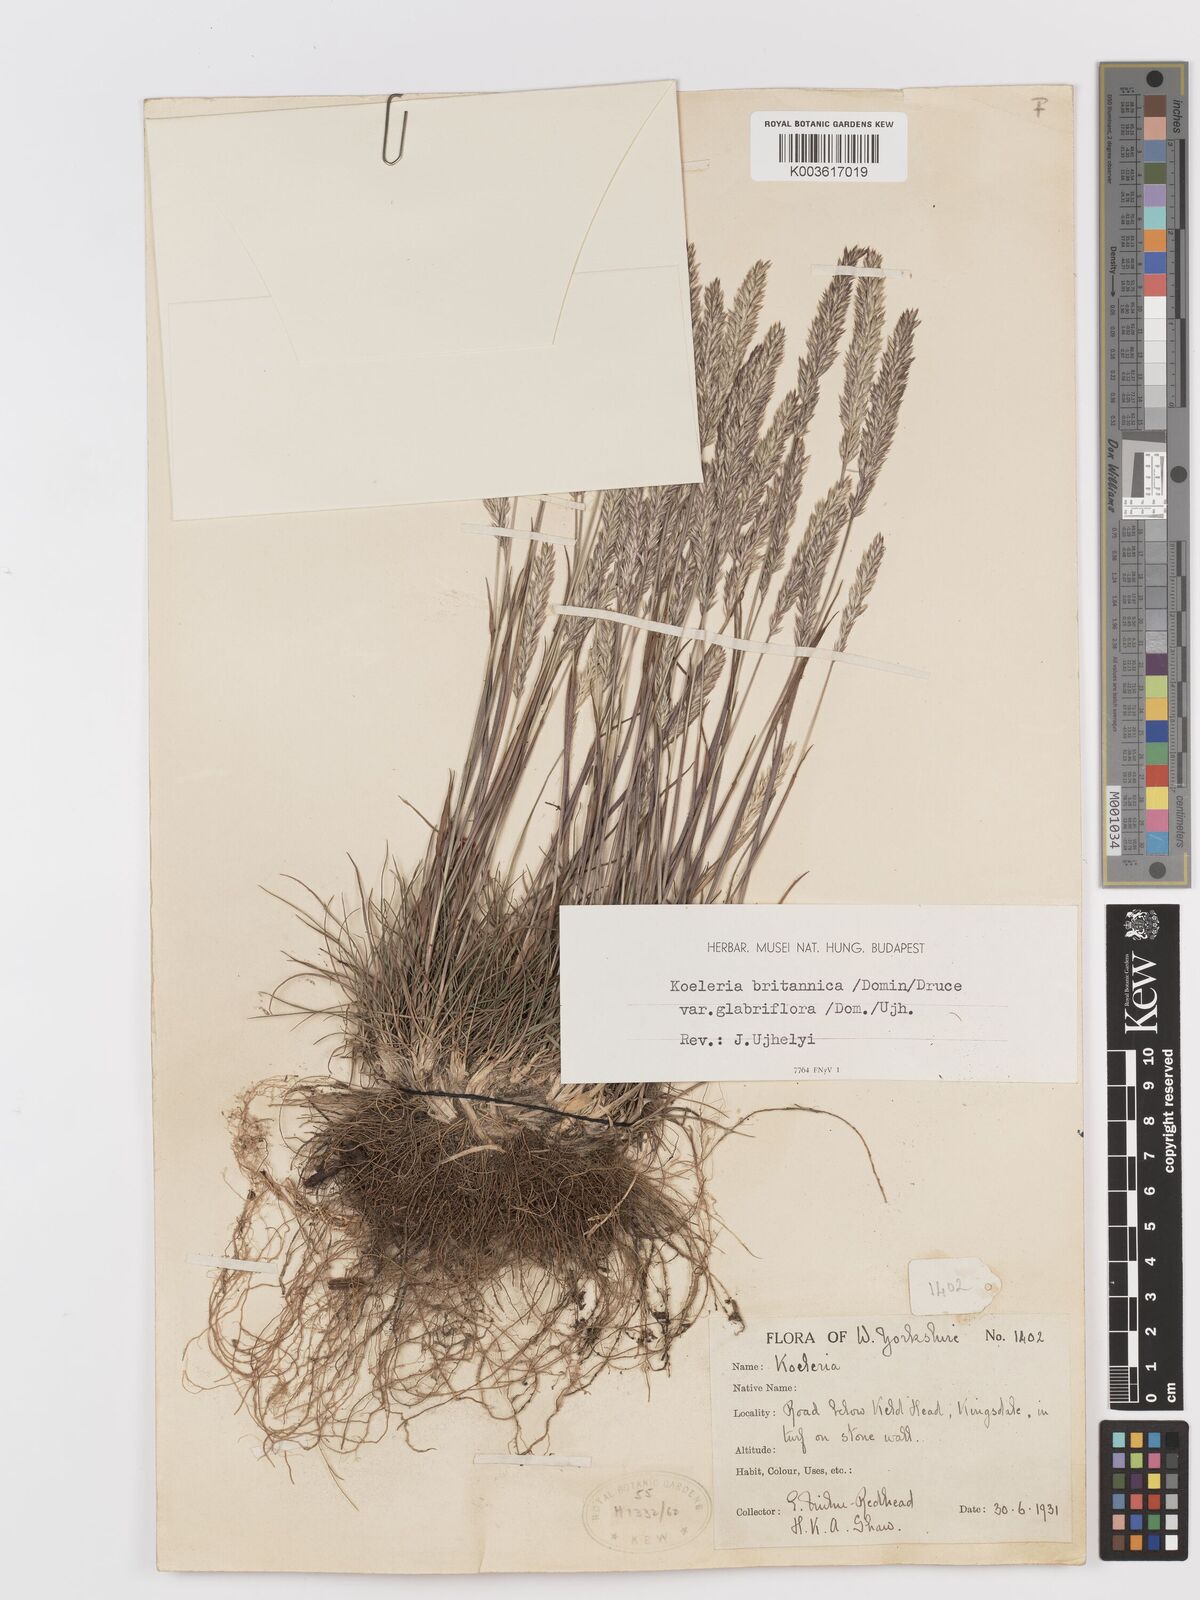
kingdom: Plantae
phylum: Tracheophyta
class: Liliopsida
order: Poales
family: Poaceae
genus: Koeleria
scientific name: Koeleria macrantha
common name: Crested hair-grass
